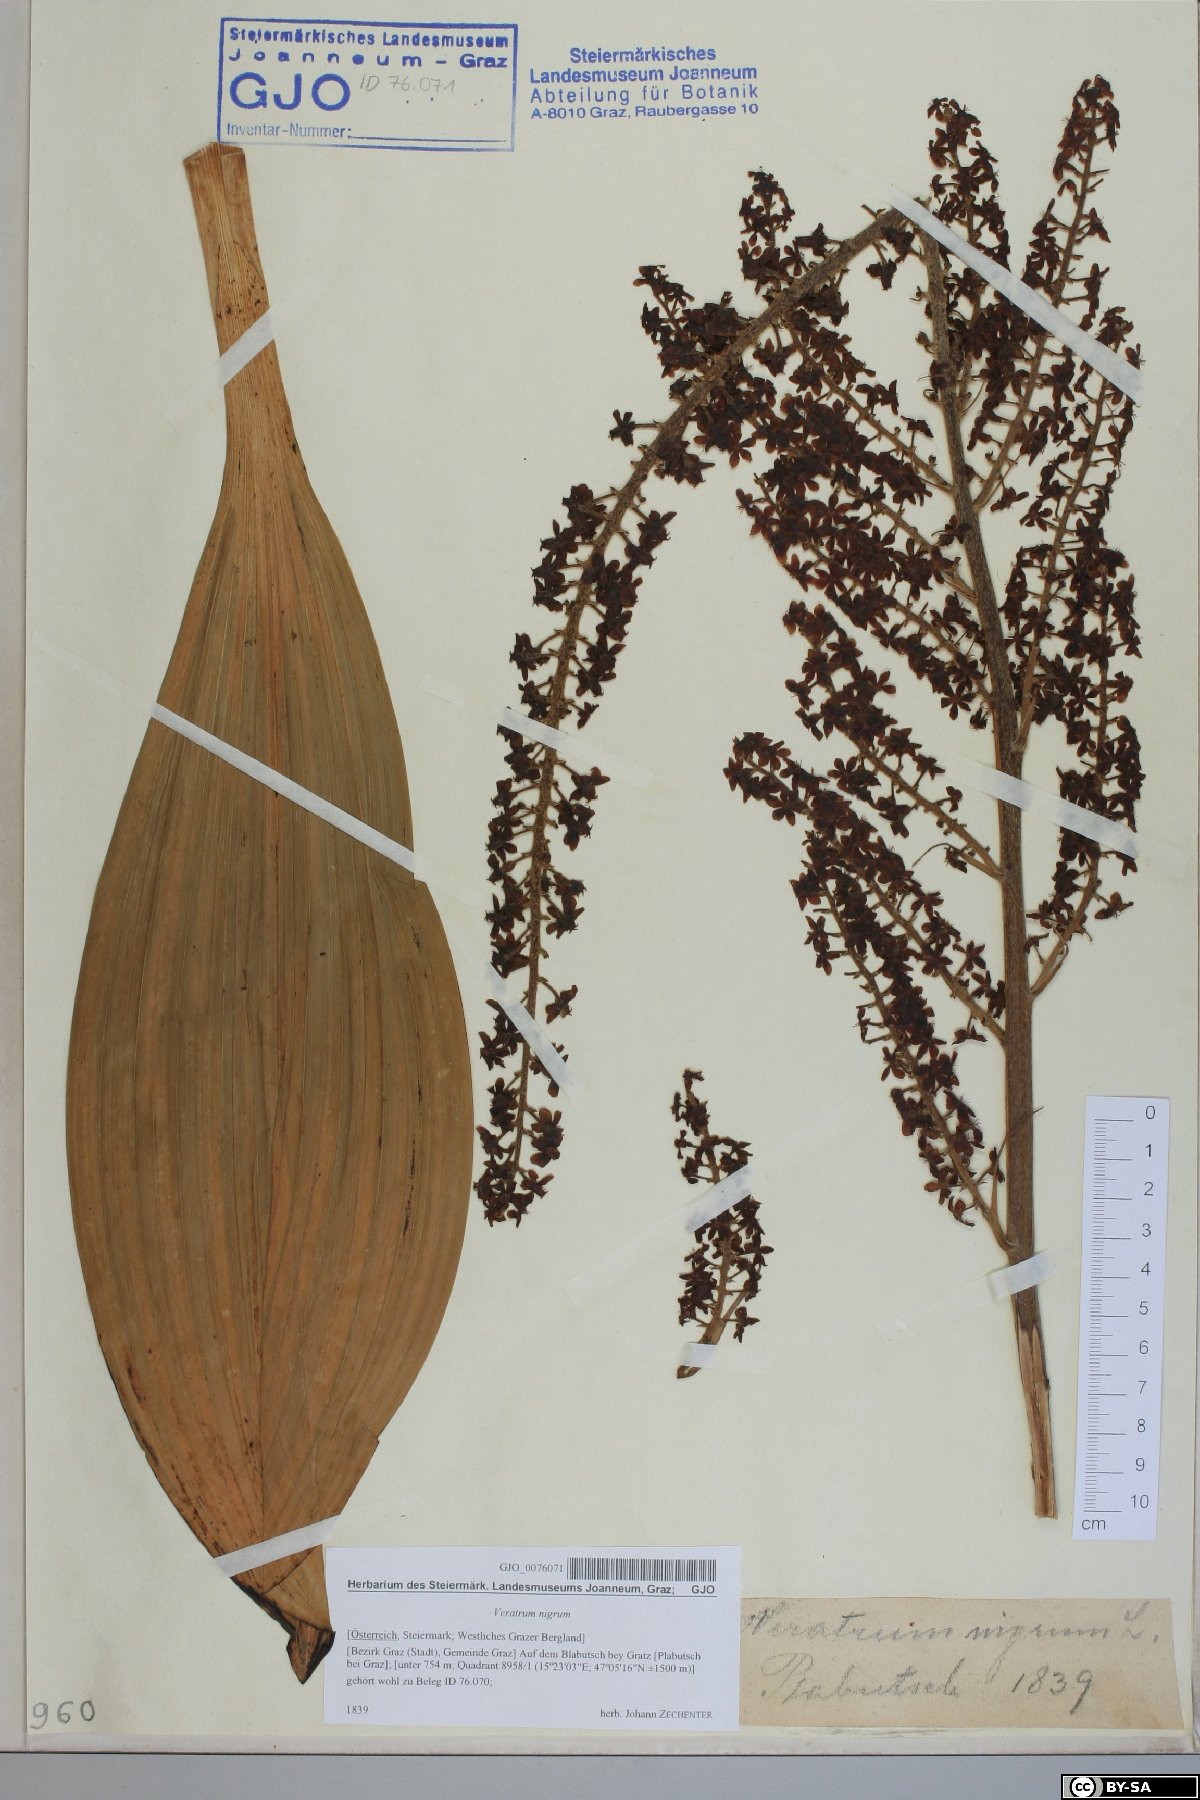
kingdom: Plantae
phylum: Tracheophyta
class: Liliopsida
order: Liliales
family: Melanthiaceae
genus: Veratrum
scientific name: Veratrum nigrum
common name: Black veratrum
